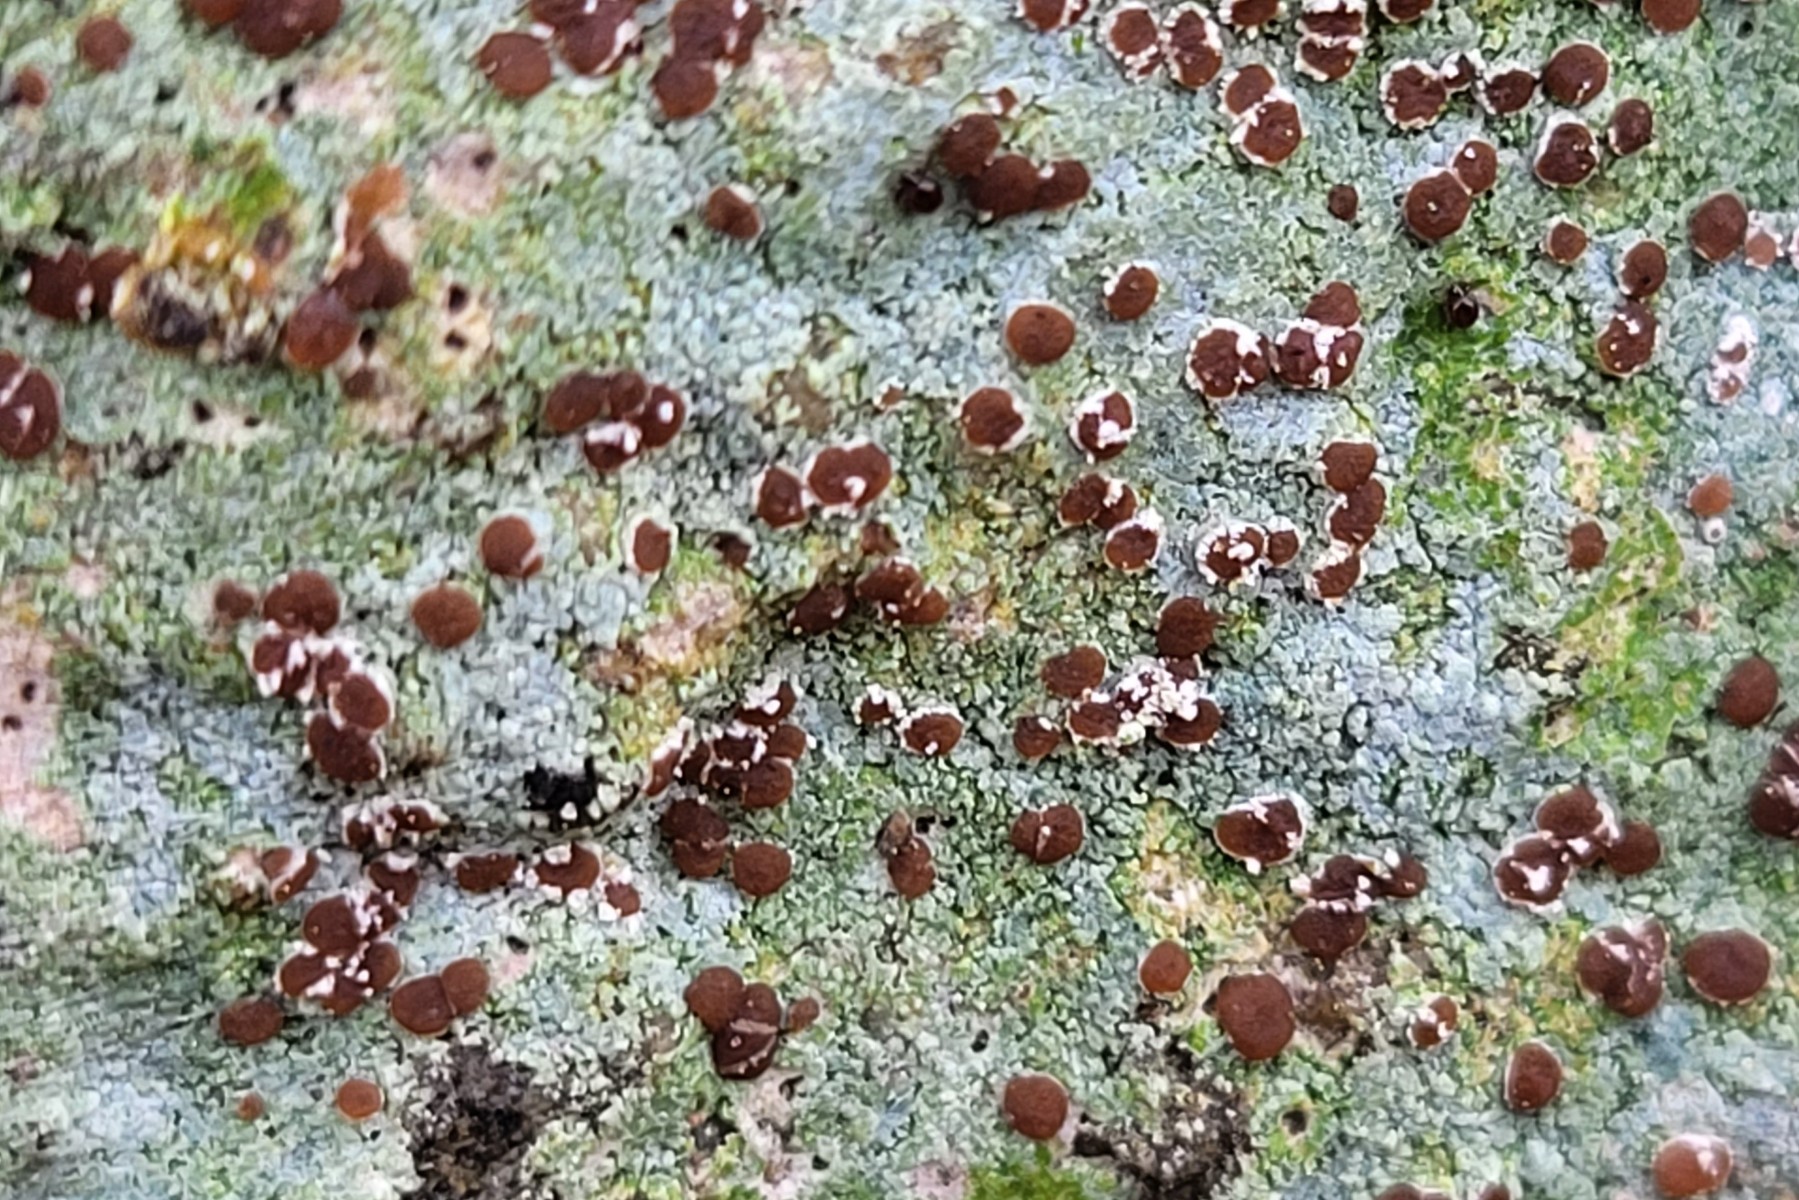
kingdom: Fungi
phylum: Ascomycota
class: Lecanoromycetes
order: Baeomycetales
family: Trapeliaceae
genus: Trapelia
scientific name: Trapelia coarctata
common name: hvidrandet brunskivelav
